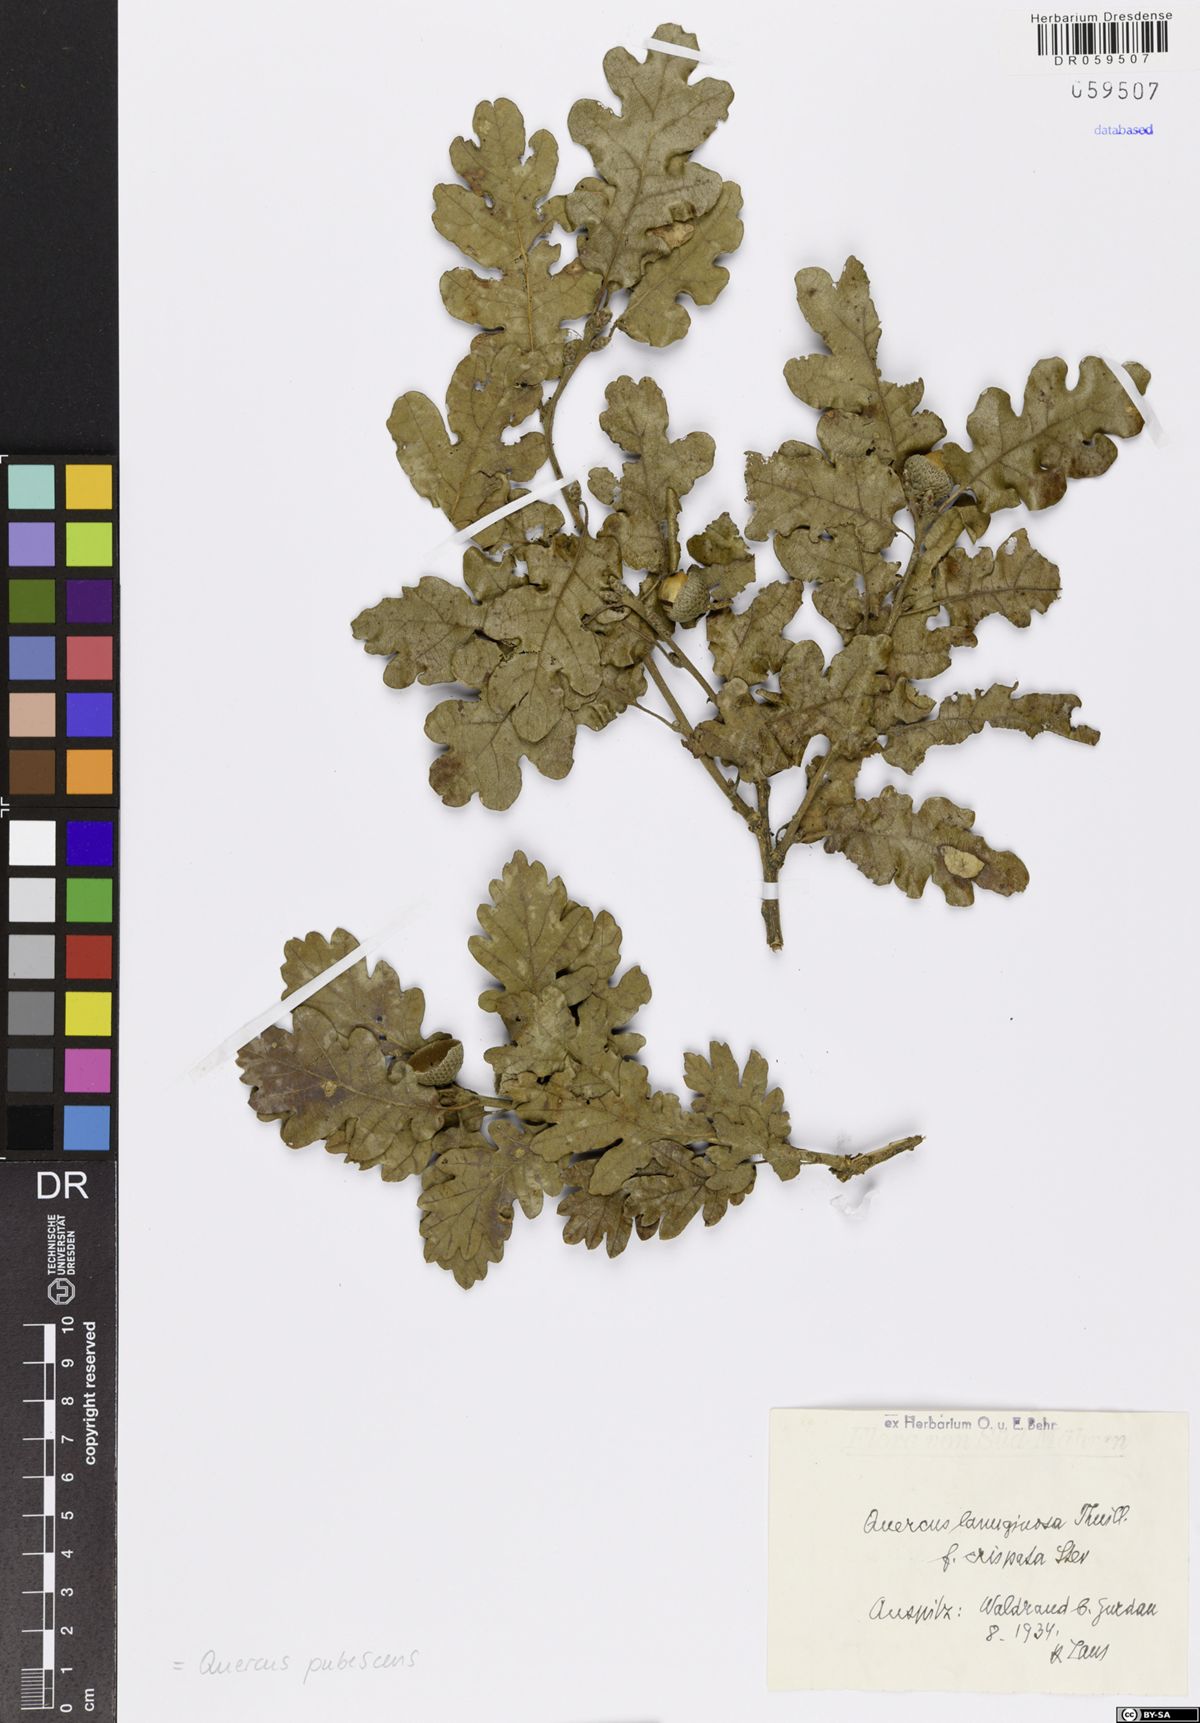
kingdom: Plantae
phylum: Tracheophyta
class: Magnoliopsida
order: Fagales
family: Fagaceae
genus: Quercus
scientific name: Quercus pubescens
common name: Downy oak
